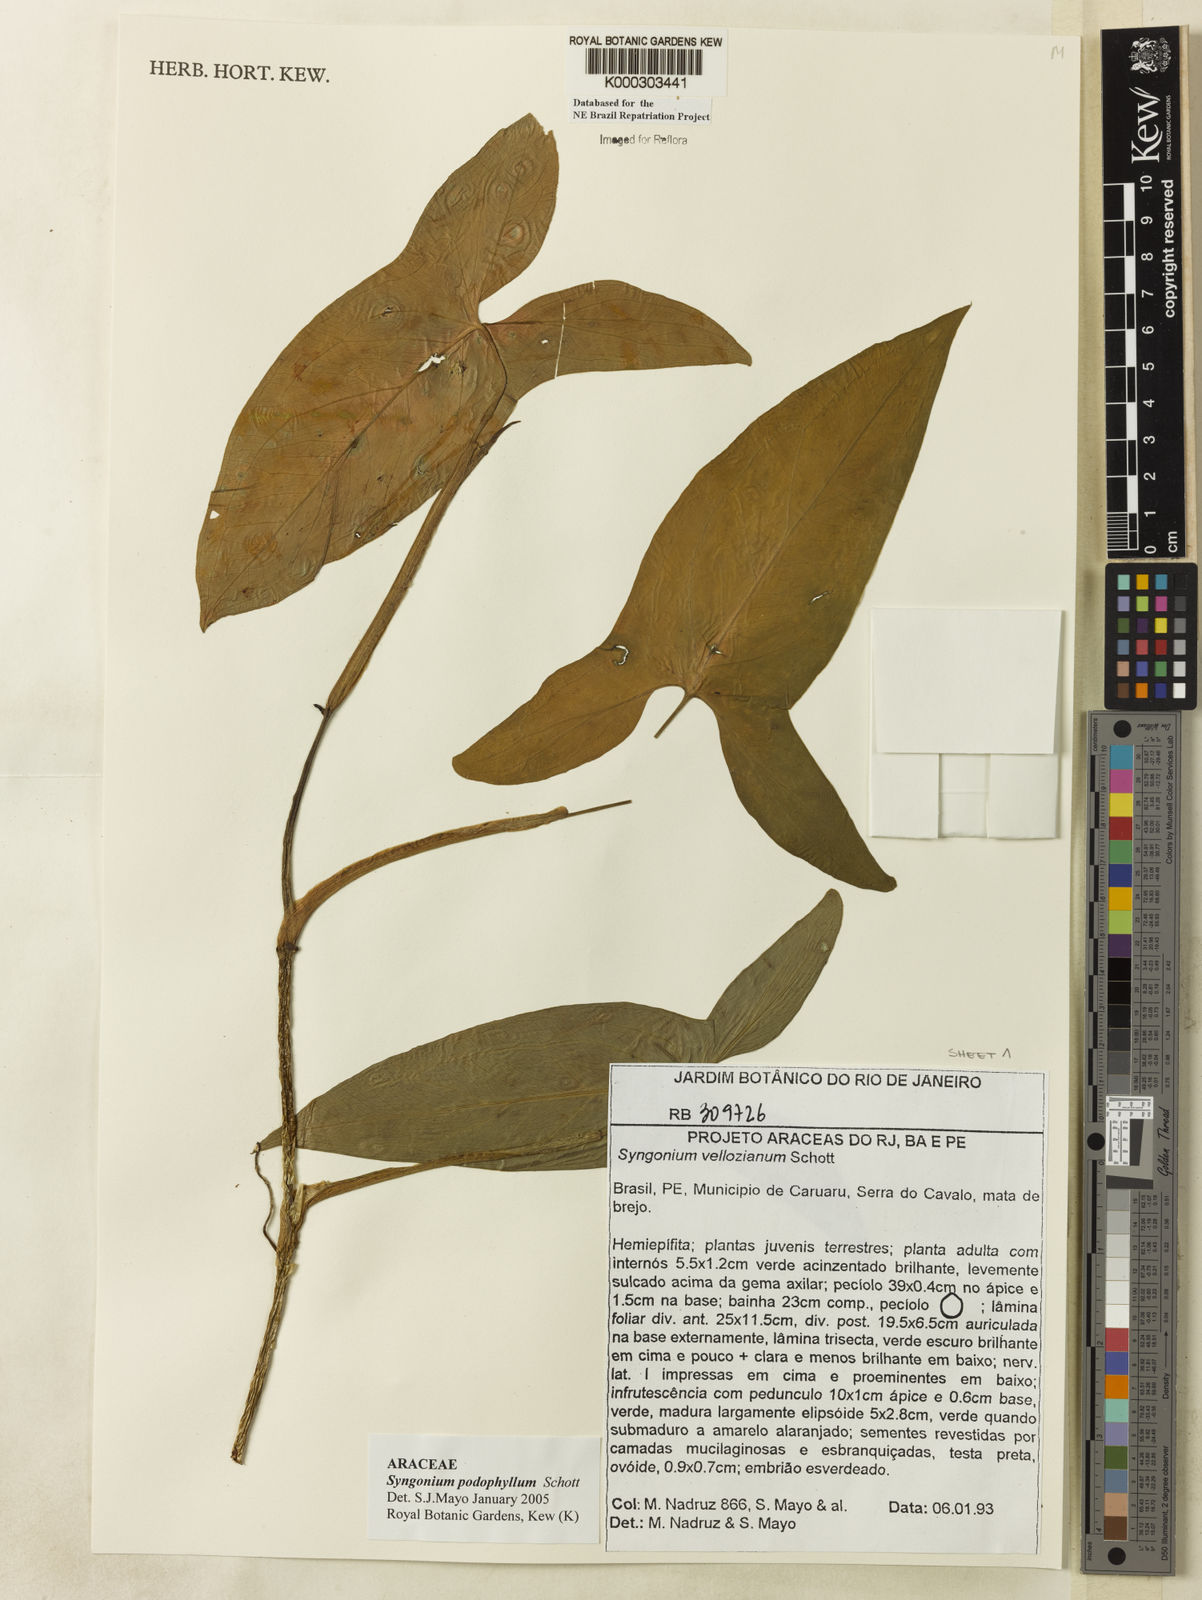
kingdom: Plantae
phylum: Tracheophyta
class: Liliopsida
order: Alismatales
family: Araceae
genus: Syngonium
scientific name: Syngonium podophyllum
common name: American evergreen
